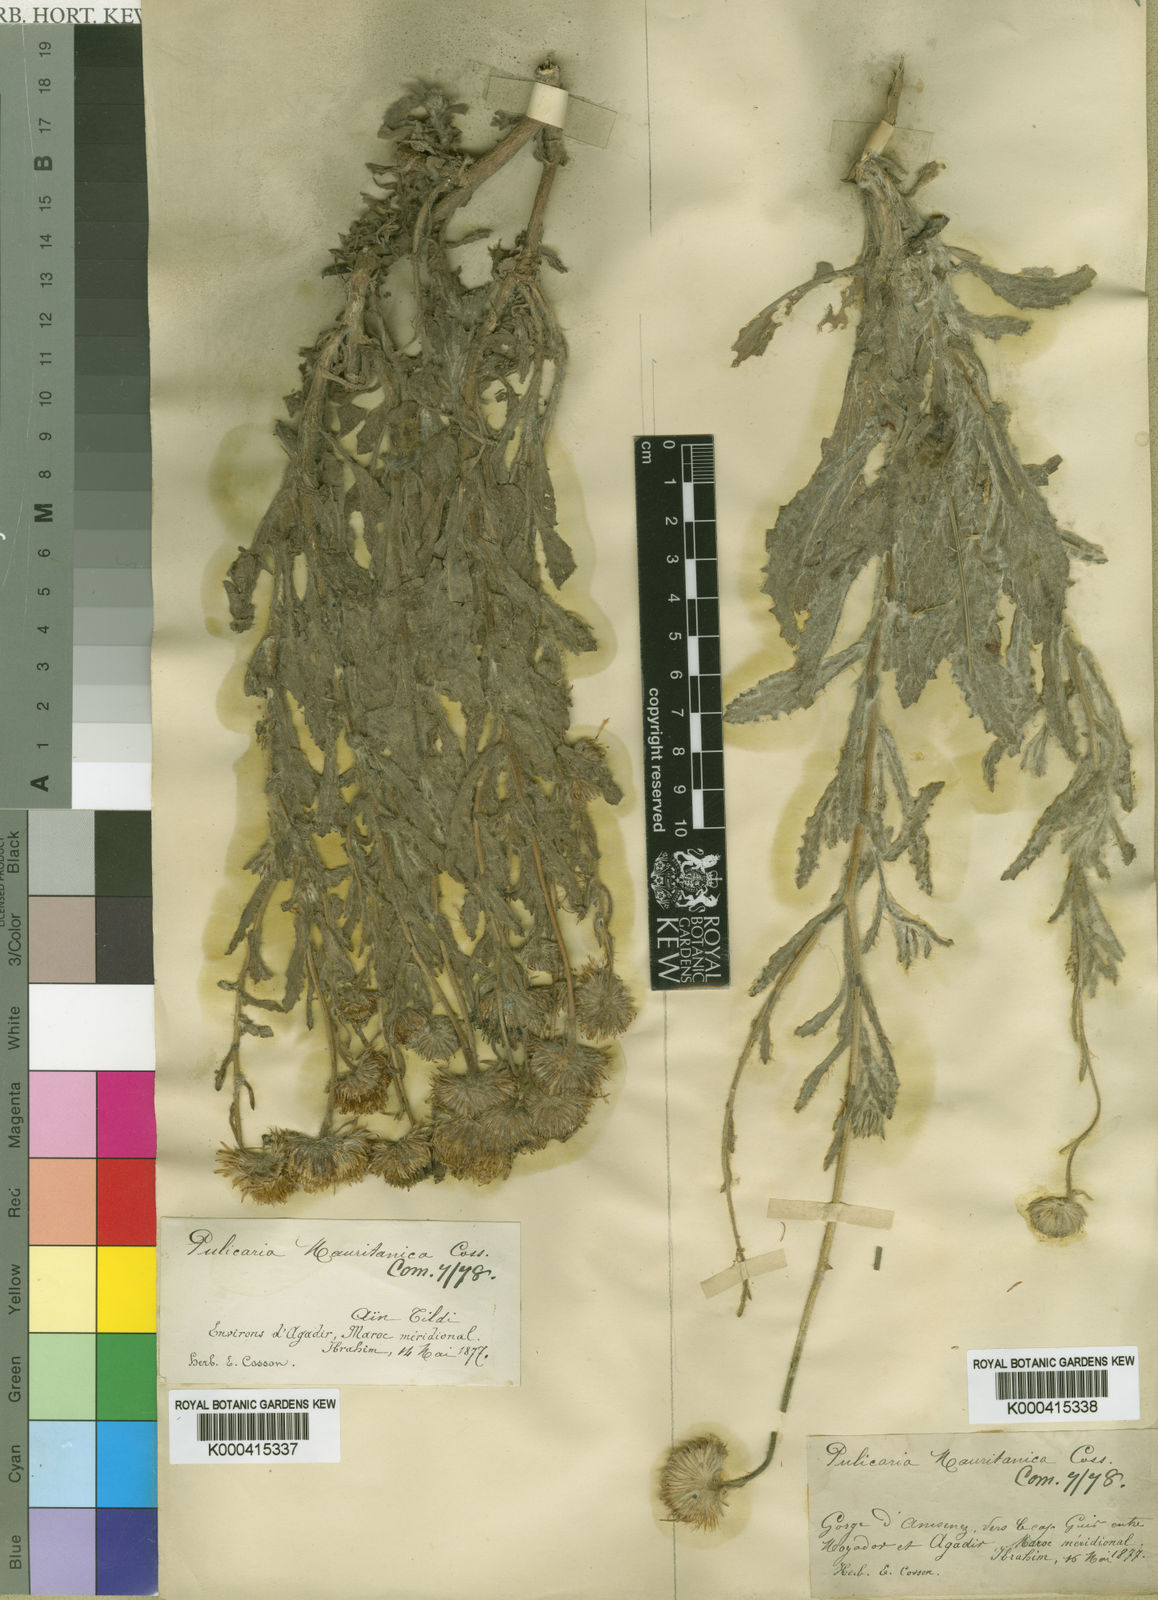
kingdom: Plantae
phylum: Tracheophyta
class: Magnoliopsida
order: Asterales
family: Asteraceae
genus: Pulicaria
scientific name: Pulicaria mauritanica
